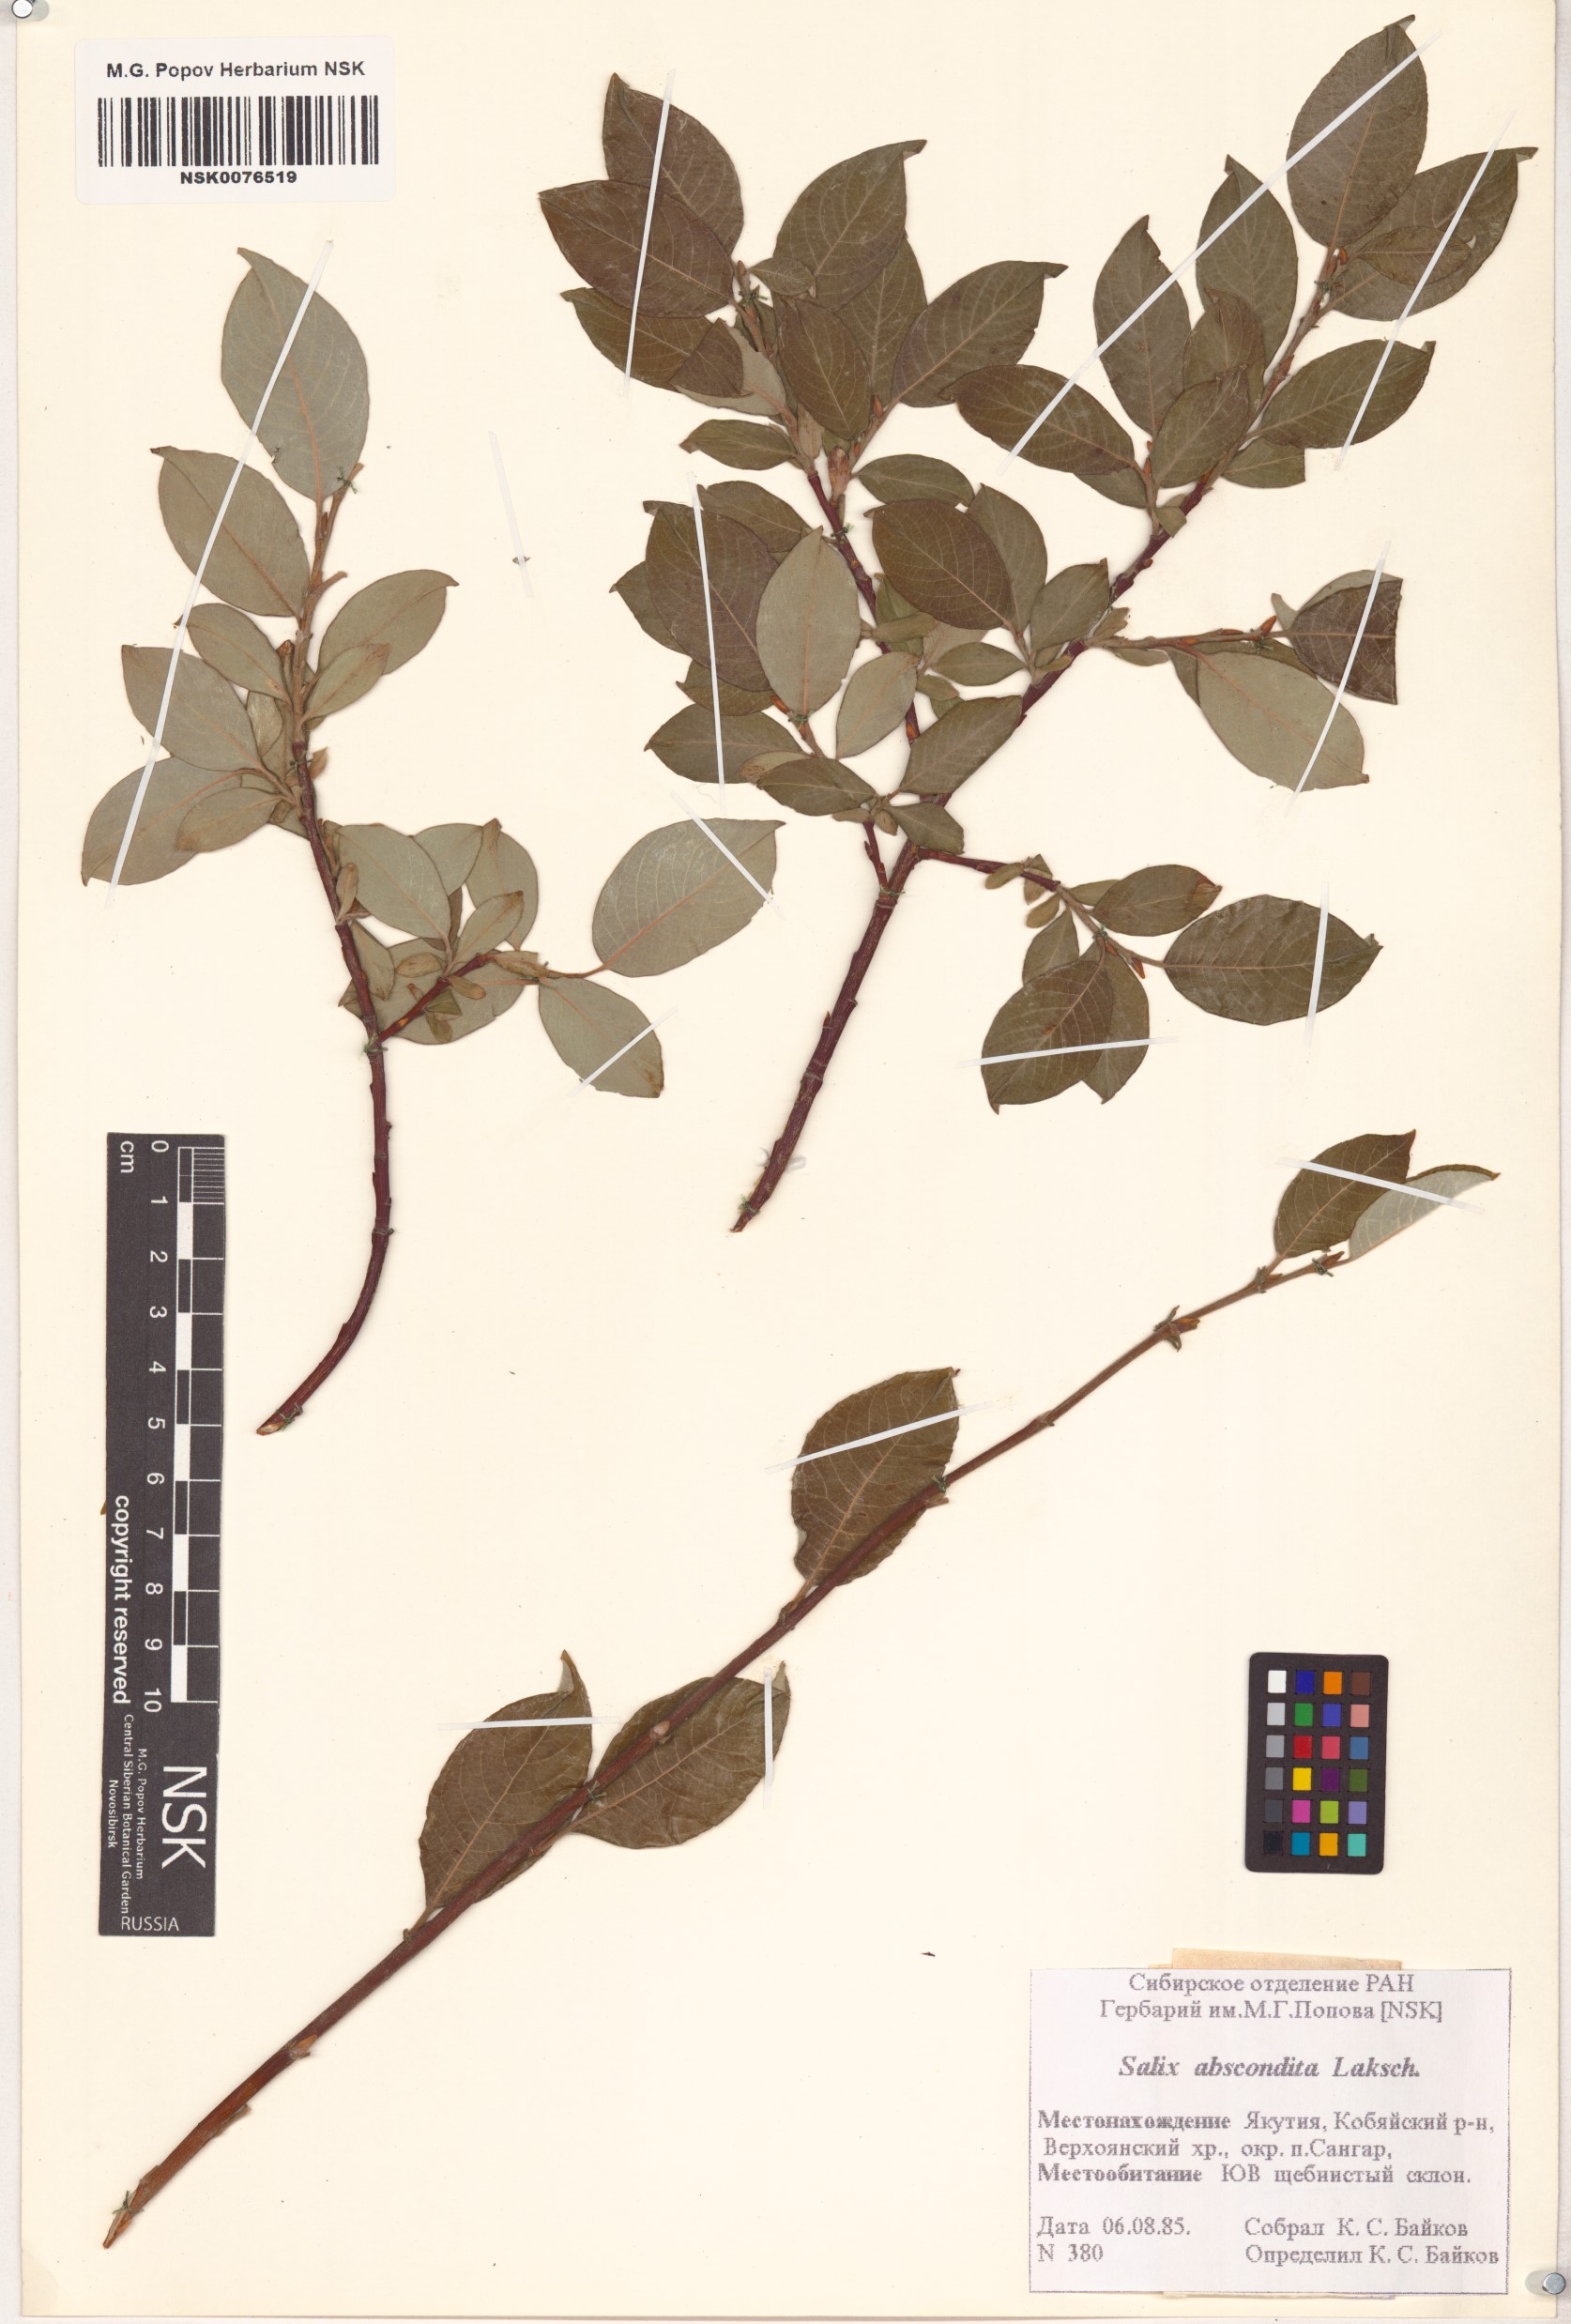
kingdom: Plantae
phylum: Tracheophyta
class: Magnoliopsida
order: Malpighiales
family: Salicaceae
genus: Salix
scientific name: Salix abscondita
